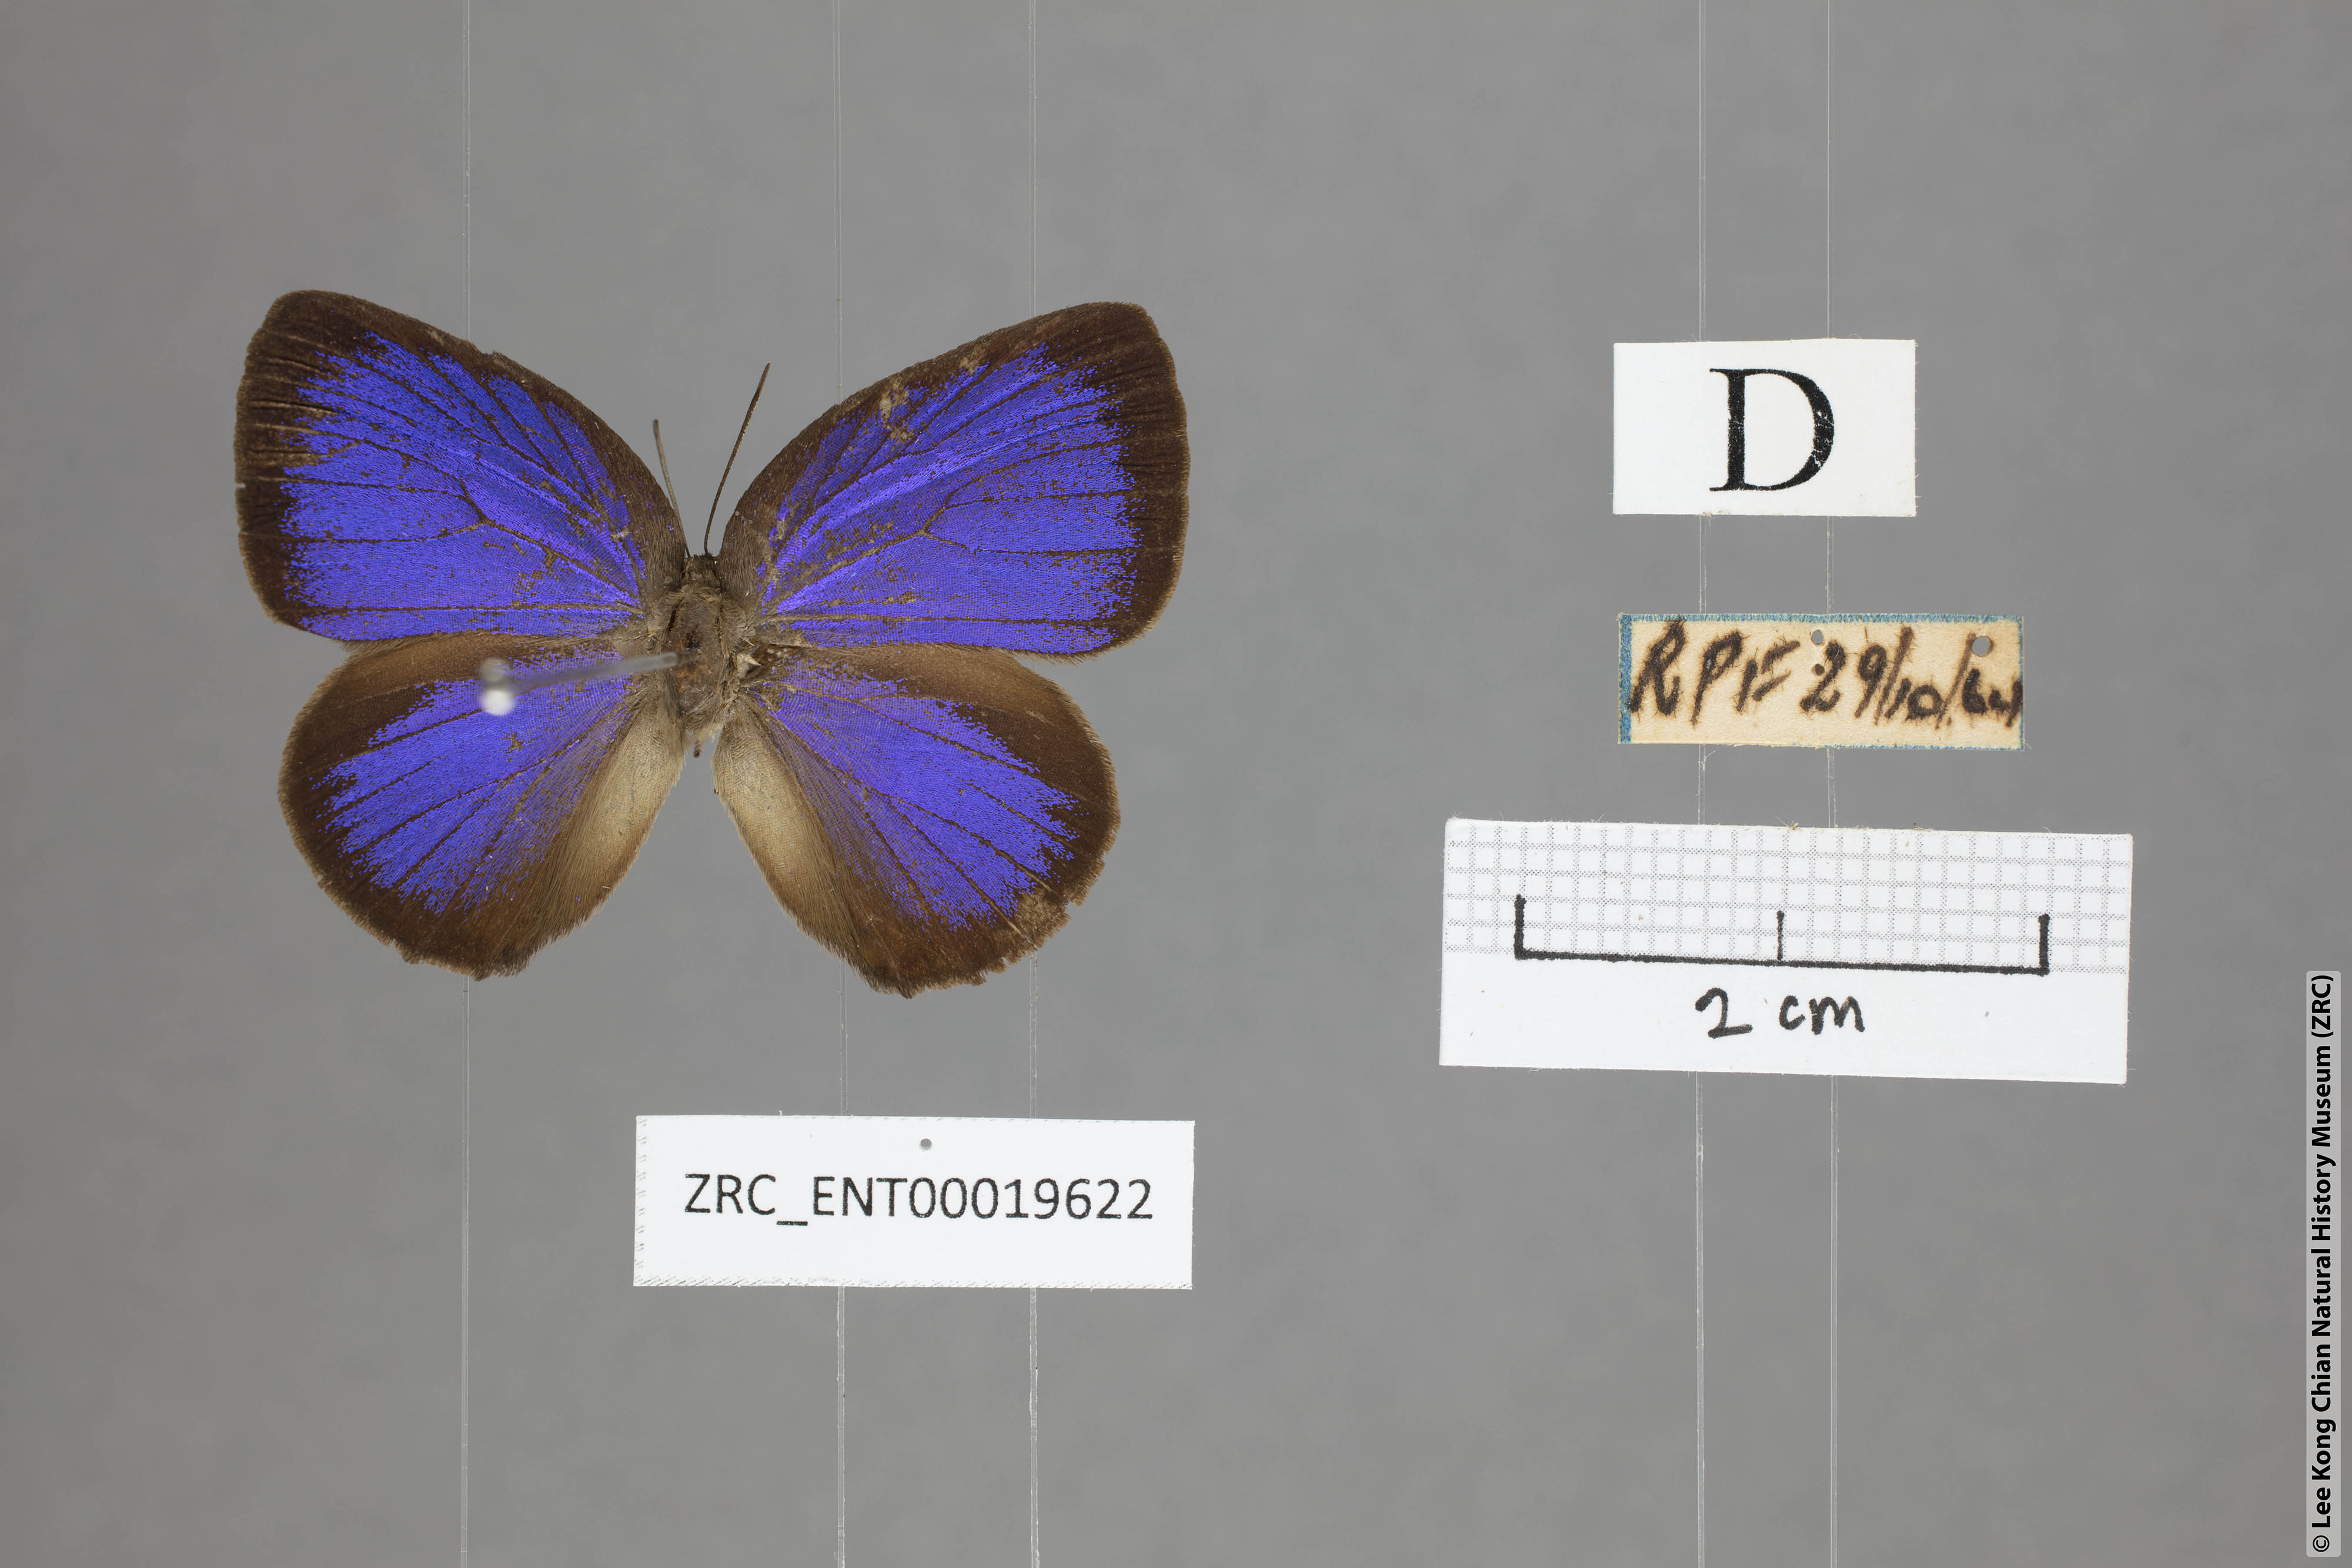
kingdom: Animalia
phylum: Arthropoda
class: Insecta
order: Lepidoptera
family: Lycaenidae
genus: Arhopala
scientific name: Arhopala major
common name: Major yellow oakblue
